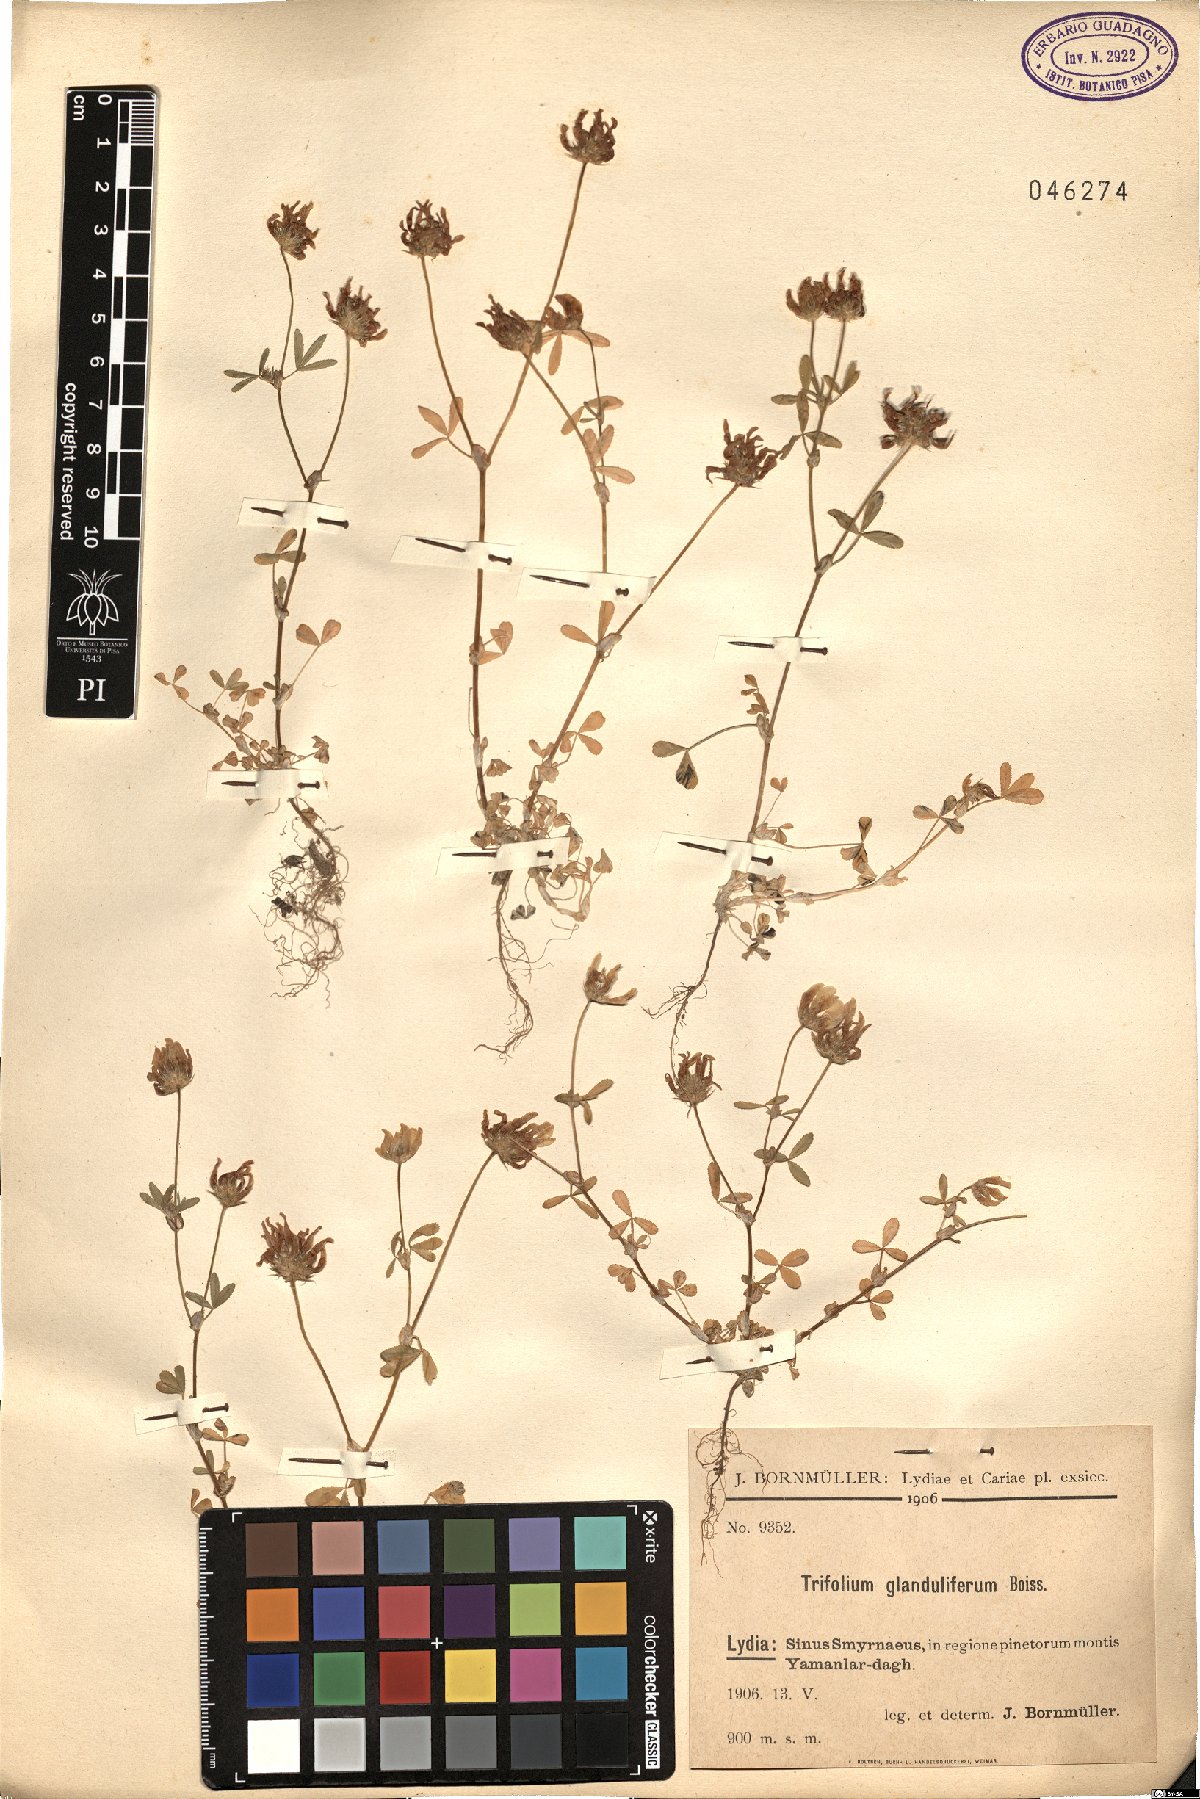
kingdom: Plantae
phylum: Tracheophyta
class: Magnoliopsida
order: Fabales
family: Fabaceae
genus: Trifolium
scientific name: Trifolium glanduliferum
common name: Glandular clover
